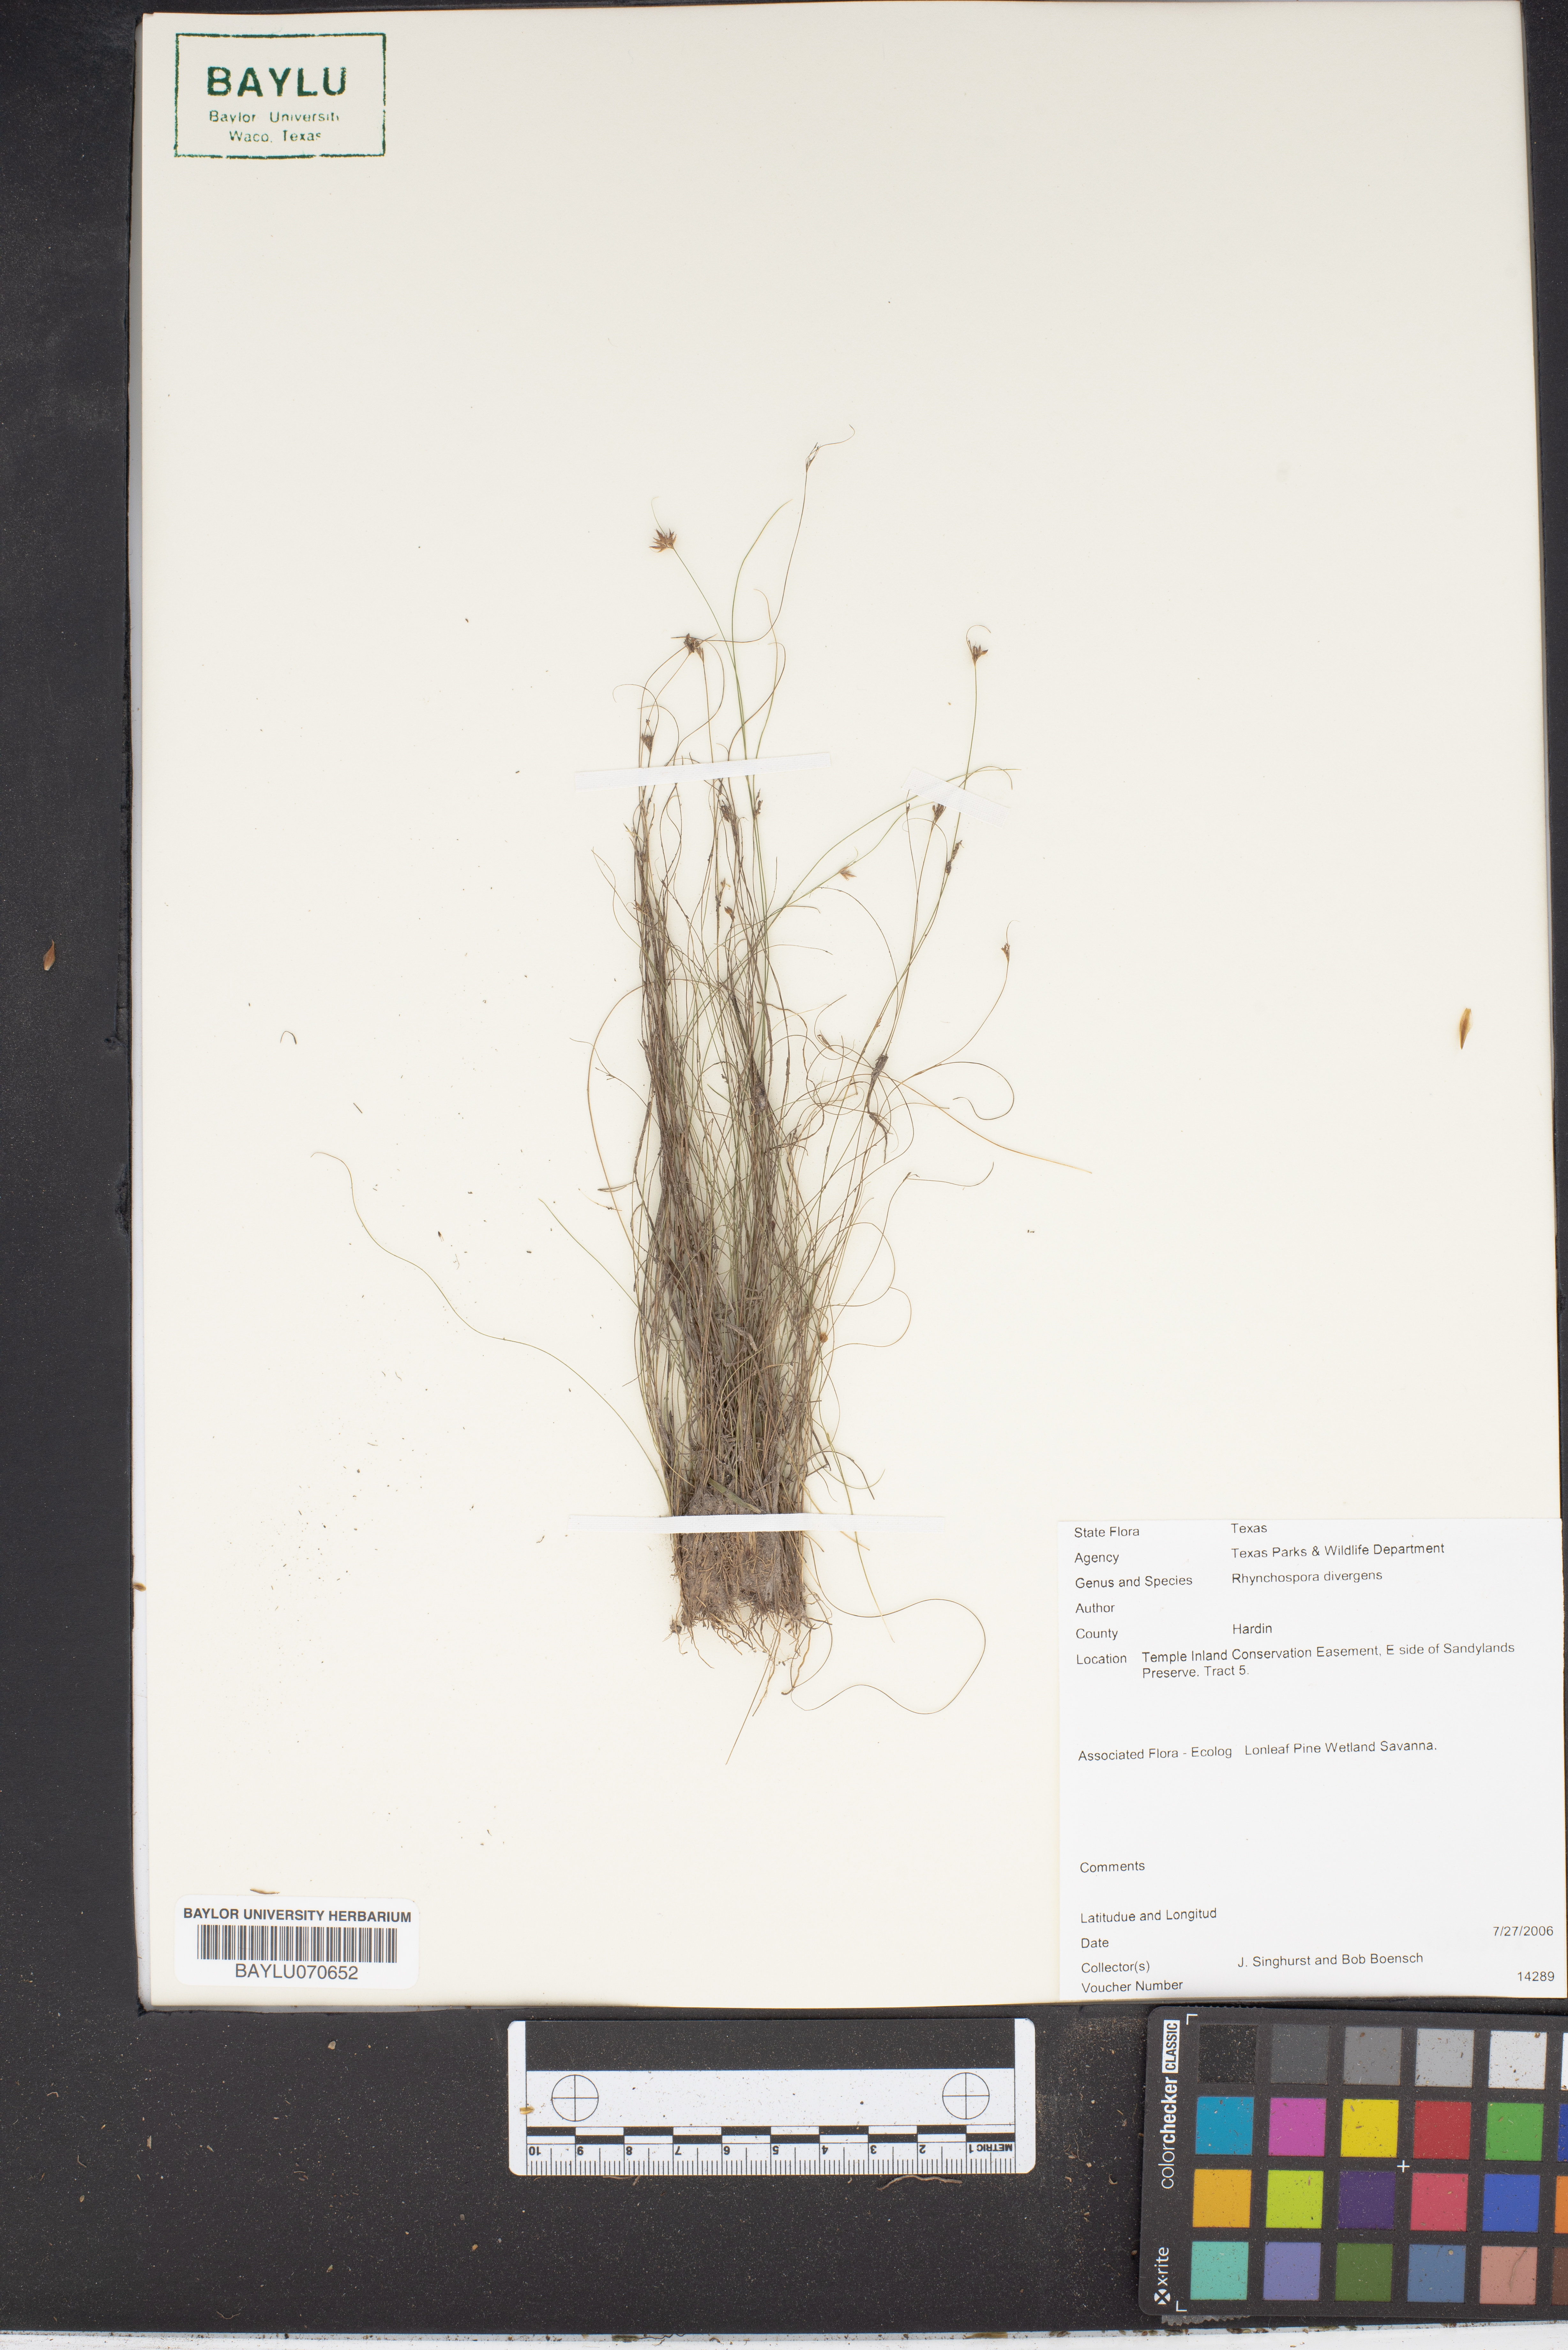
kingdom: Plantae
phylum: Tracheophyta
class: Liliopsida
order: Poales
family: Cyperaceae
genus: Rhynchospora
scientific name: Rhynchospora divergens
